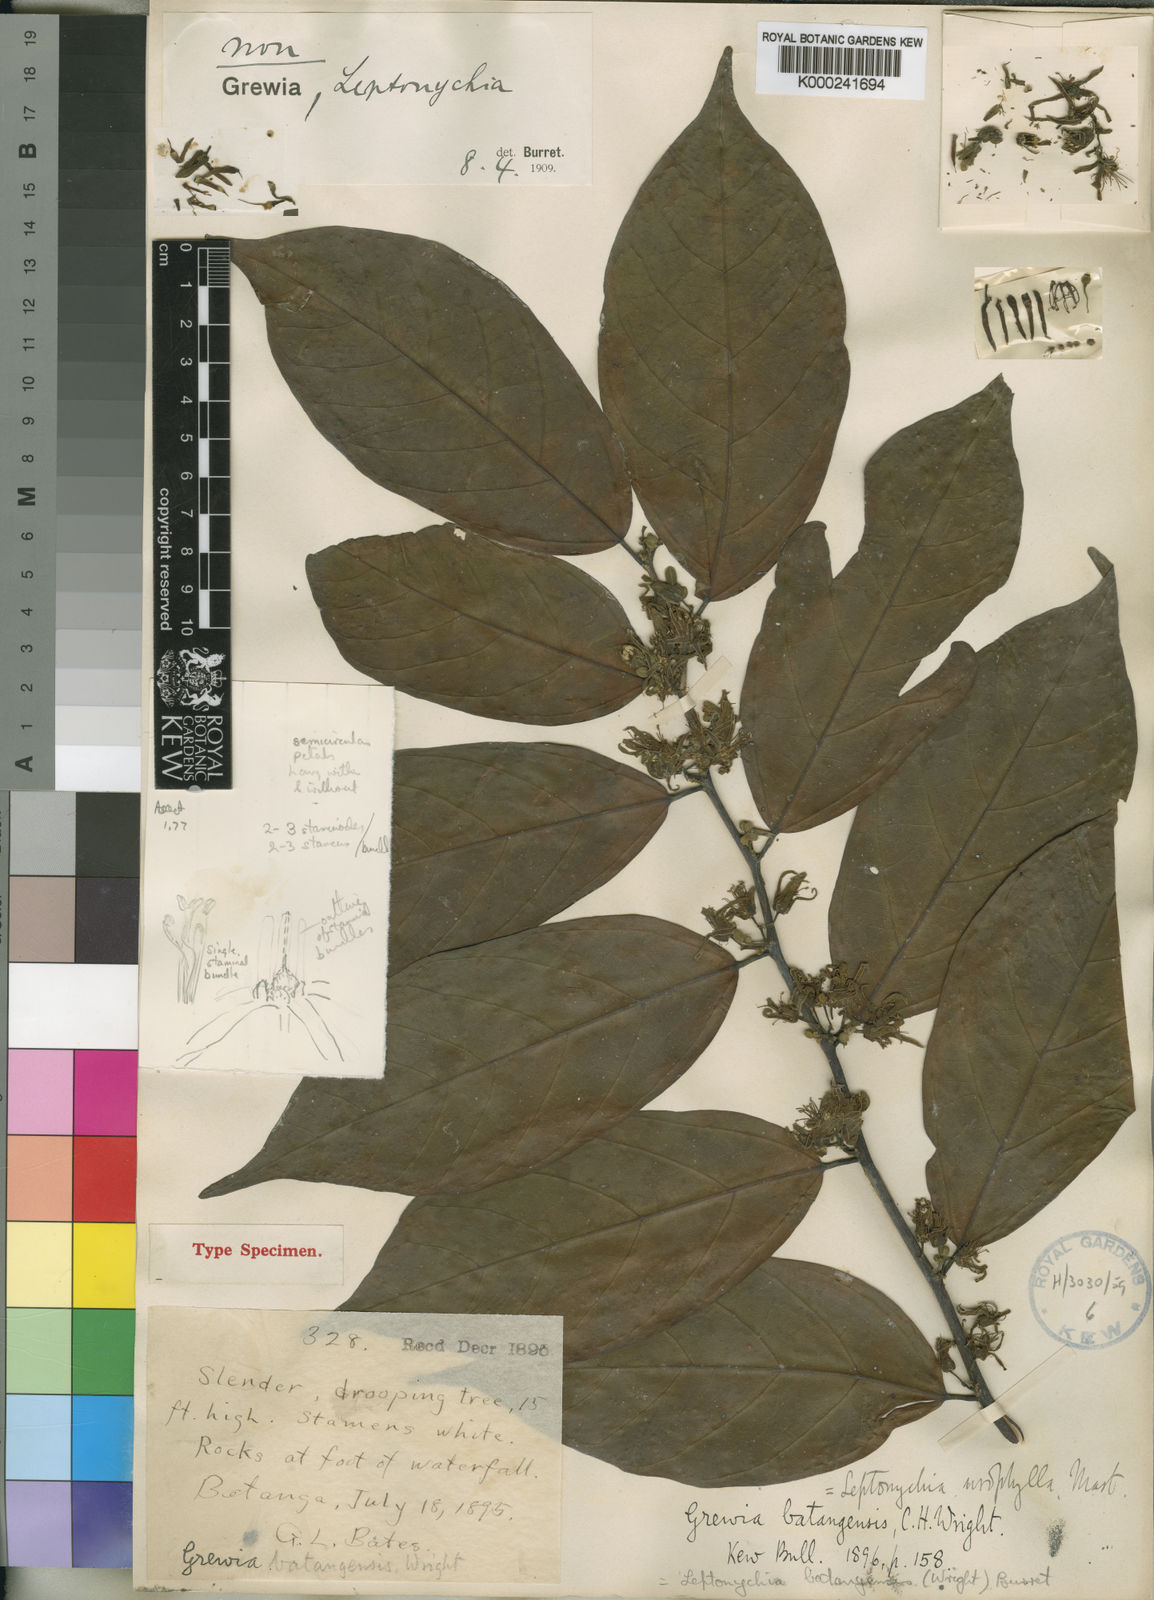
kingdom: Plantae
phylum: Tracheophyta
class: Magnoliopsida
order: Malvales
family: Malvaceae
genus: Leptonychia
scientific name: Leptonychia batangensis
